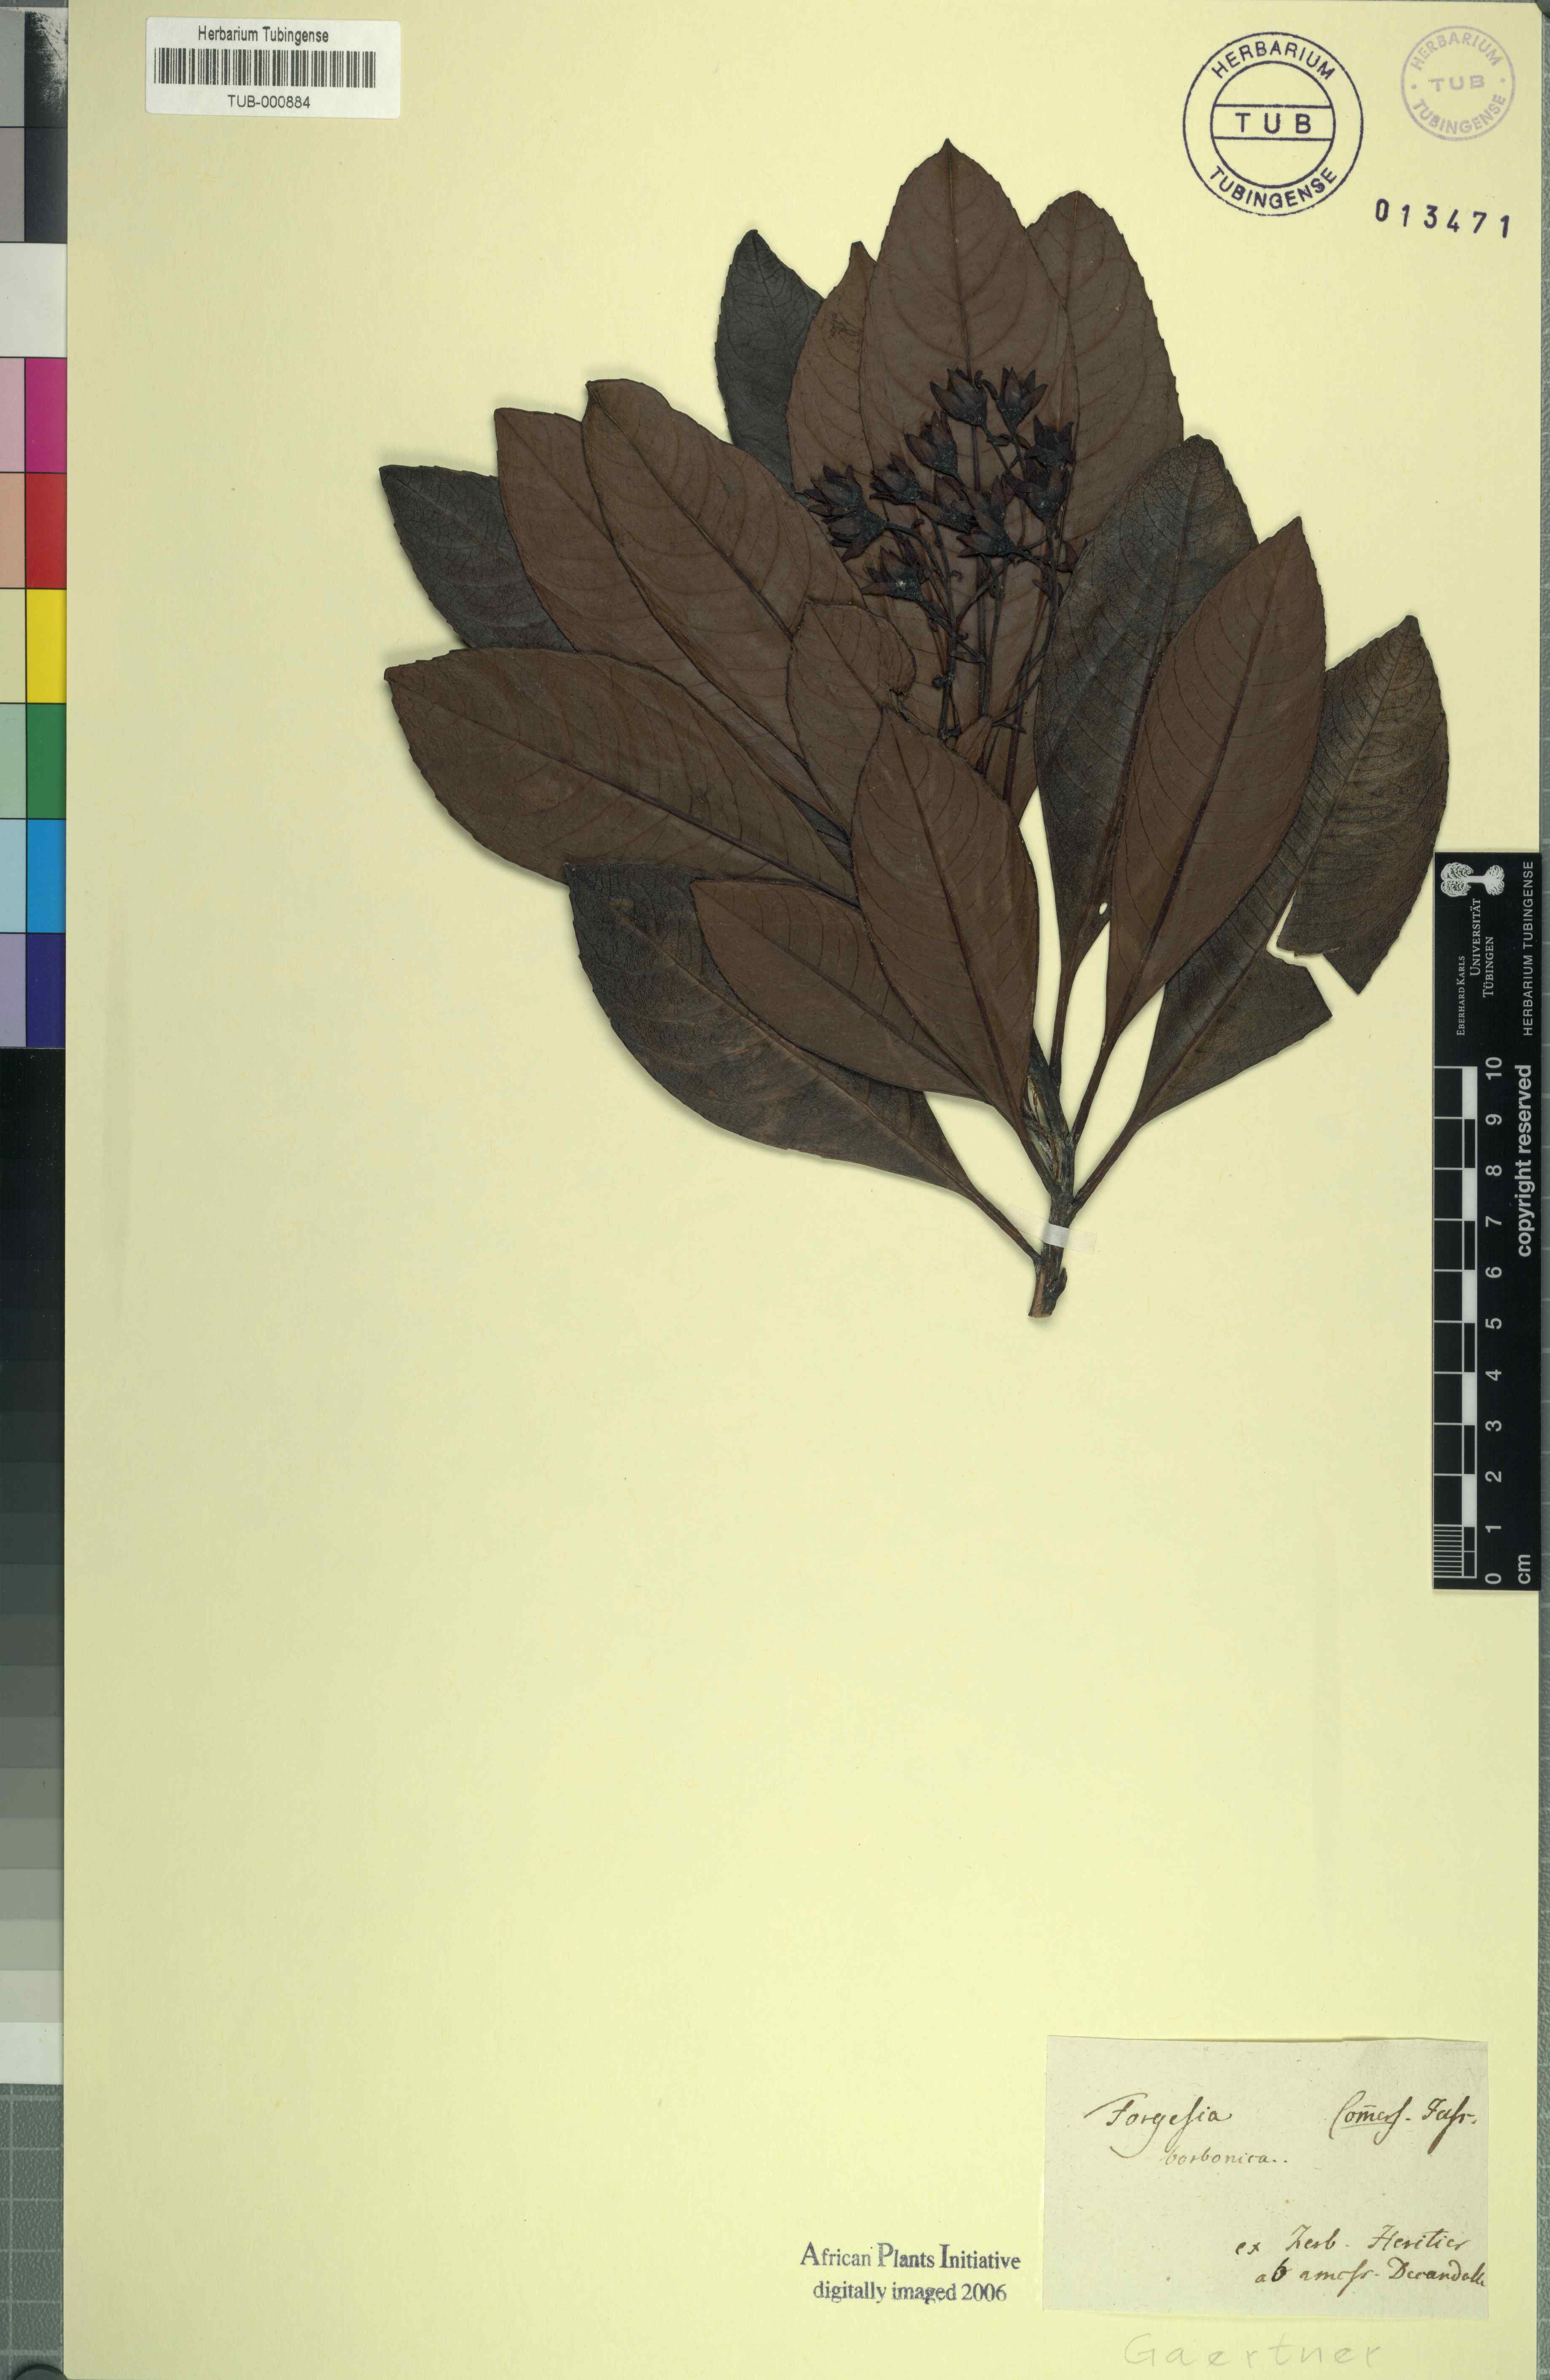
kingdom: Plantae
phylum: Tracheophyta
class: Magnoliopsida
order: Escalloniales
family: Escalloniaceae
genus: Forgesia
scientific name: Forgesia racemosa
